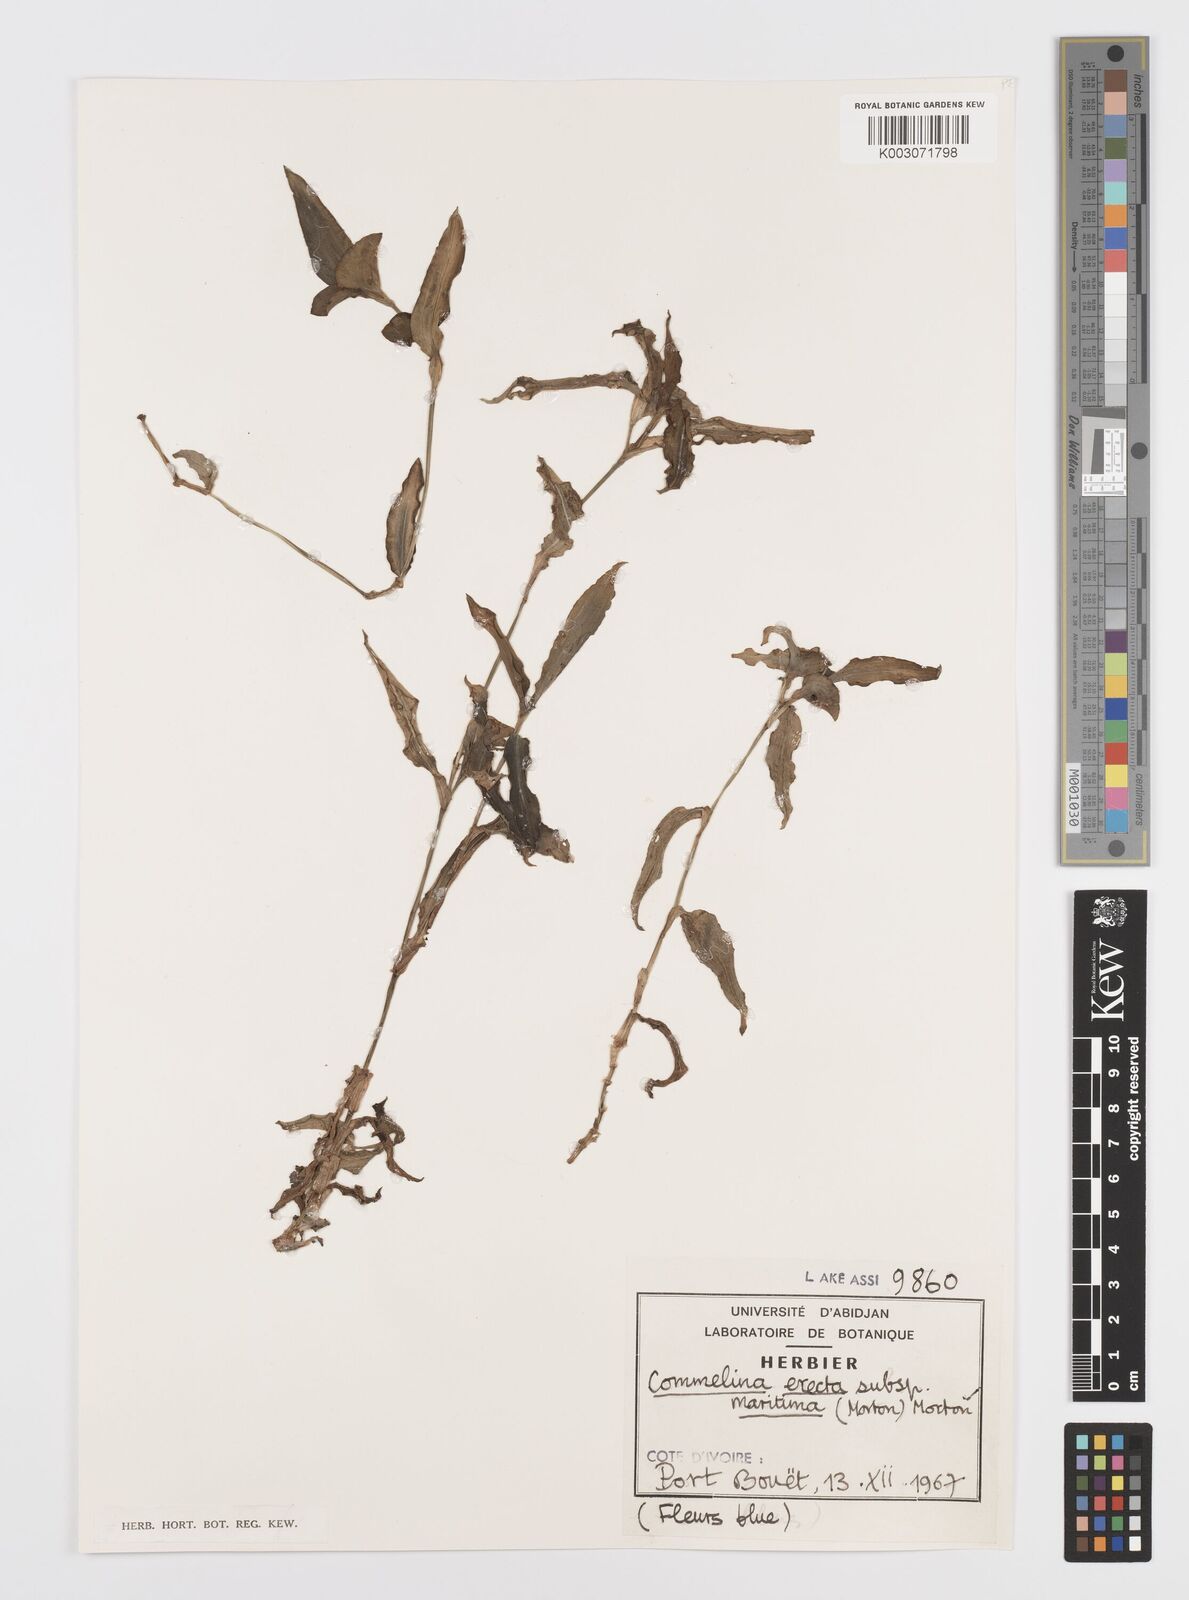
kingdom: Plantae
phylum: Tracheophyta
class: Liliopsida
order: Commelinales
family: Commelinaceae
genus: Commelina
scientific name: Commelina erecta
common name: Blousel blommetjie
